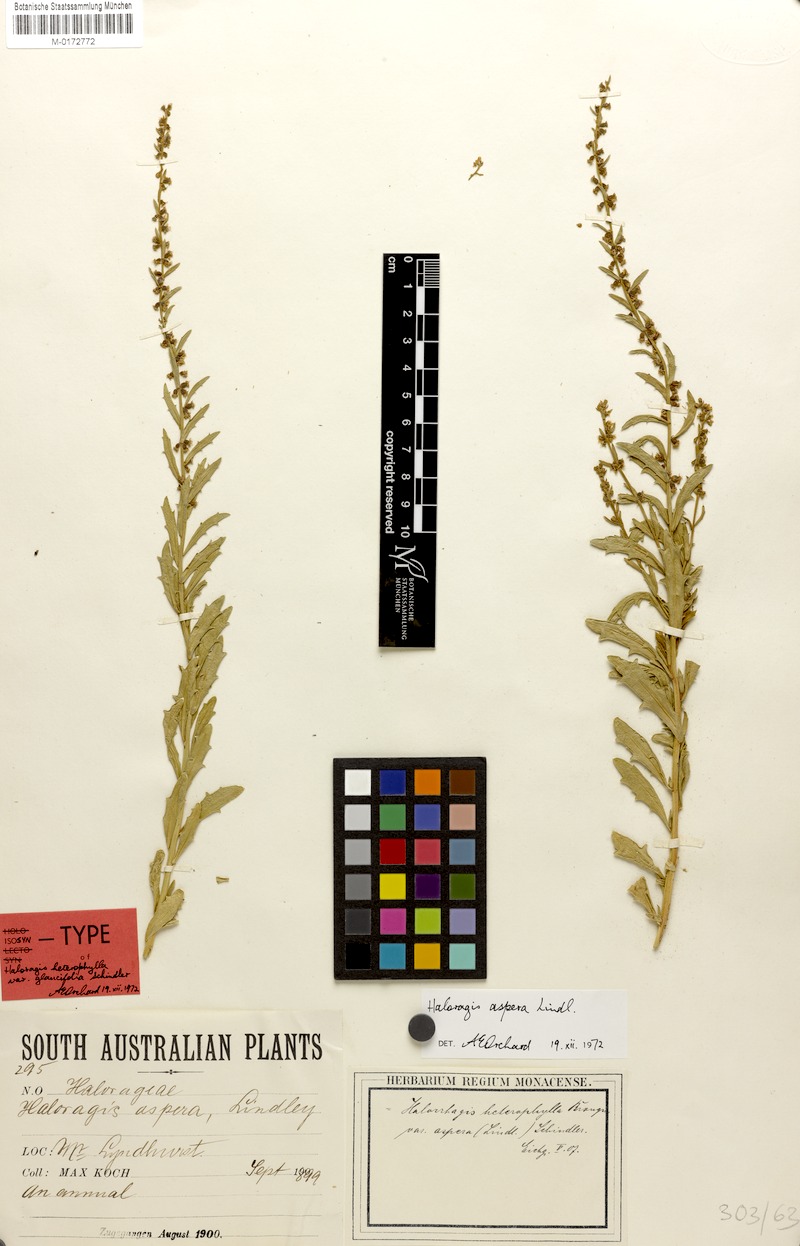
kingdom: Plantae
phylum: Tracheophyta
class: Magnoliopsida
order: Saxifragales
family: Haloragaceae
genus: Haloragis
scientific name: Haloragis aspera
